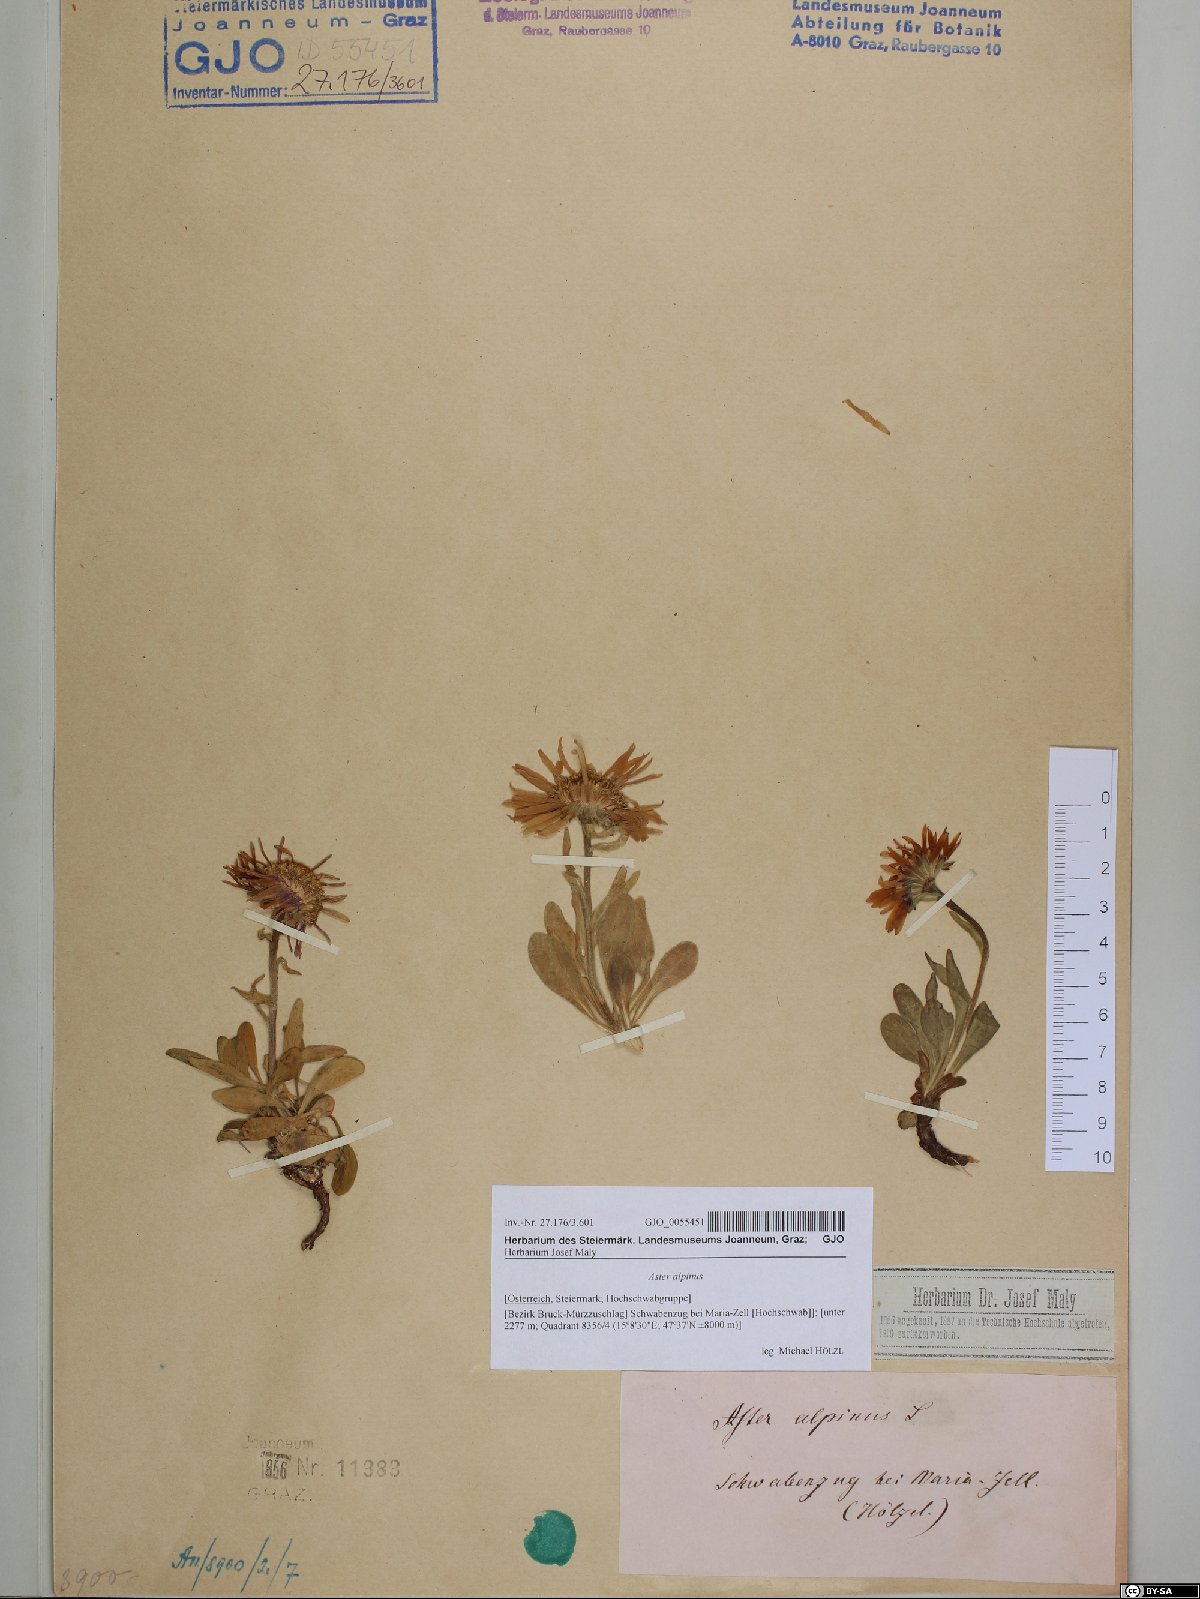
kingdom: Plantae
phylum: Tracheophyta
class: Magnoliopsida
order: Asterales
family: Asteraceae
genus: Aster
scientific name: Aster alpinus
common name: Alpine aster
